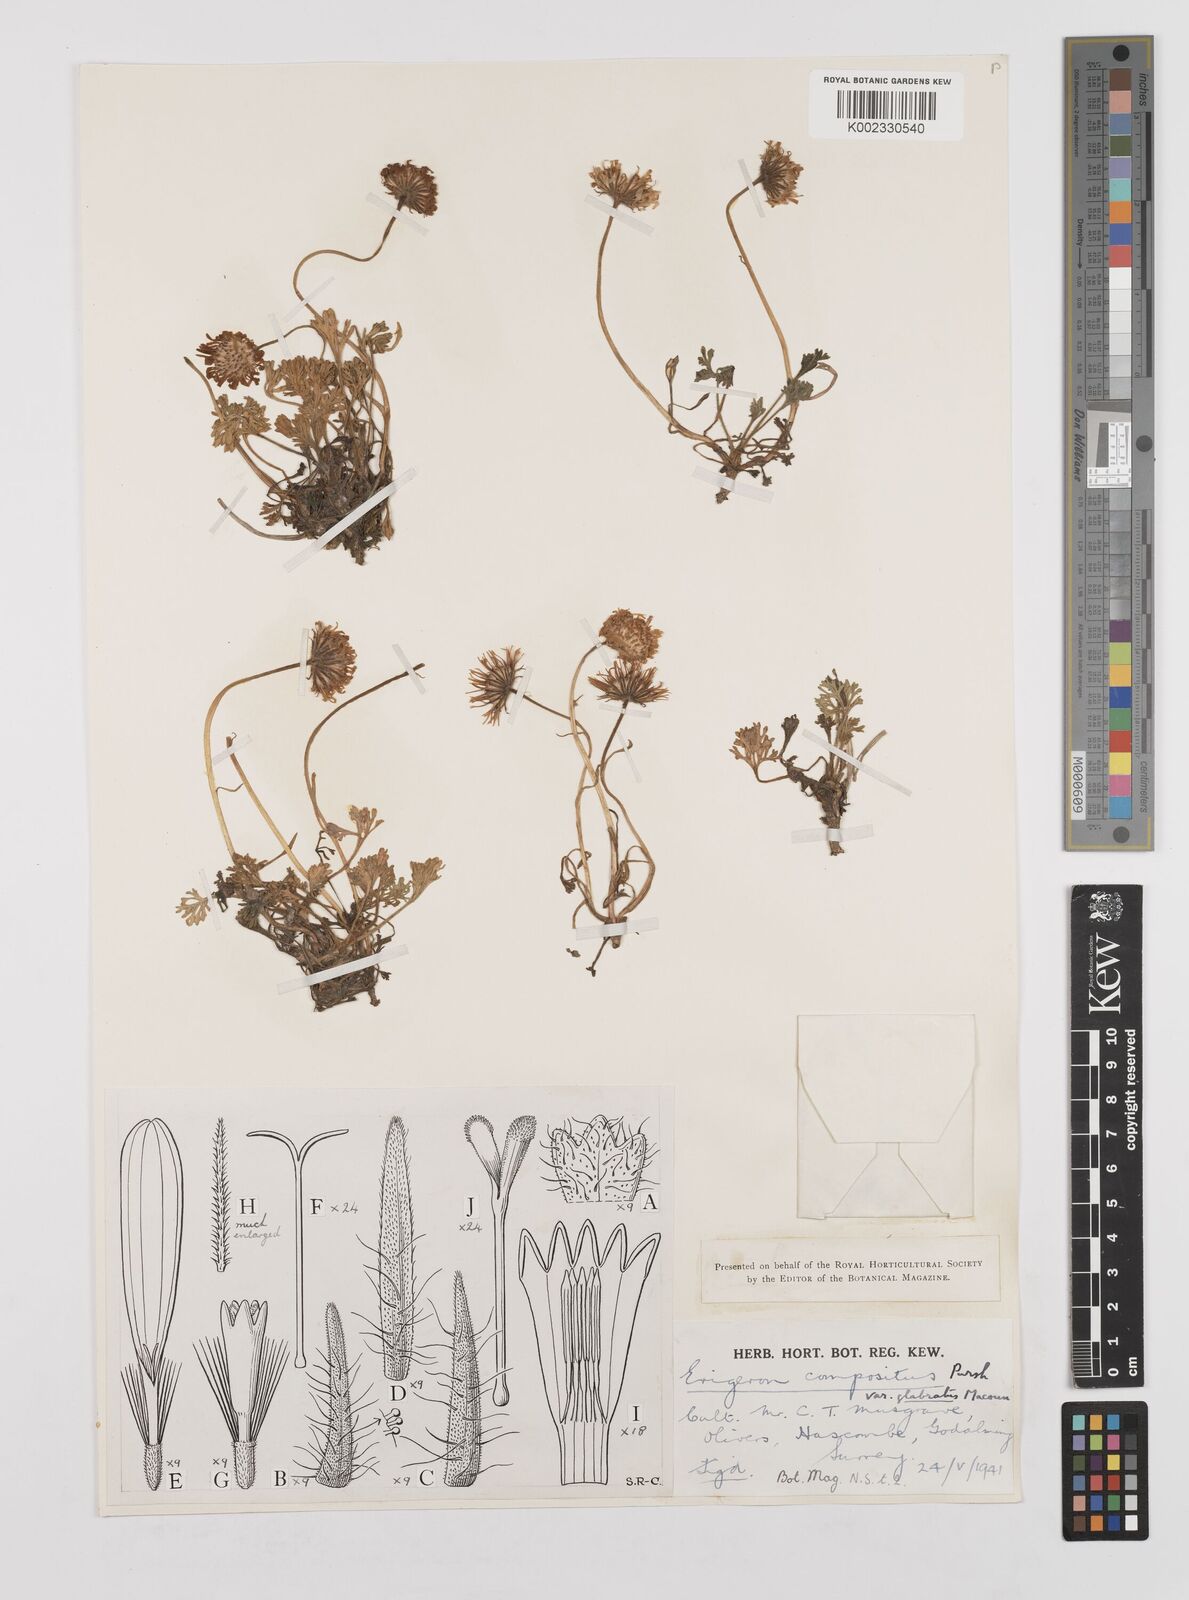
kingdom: Plantae
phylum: Tracheophyta
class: Magnoliopsida
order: Asterales
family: Asteraceae
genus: Erigeron
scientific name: Erigeron compositus
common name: Dwarf mountain fleabane
